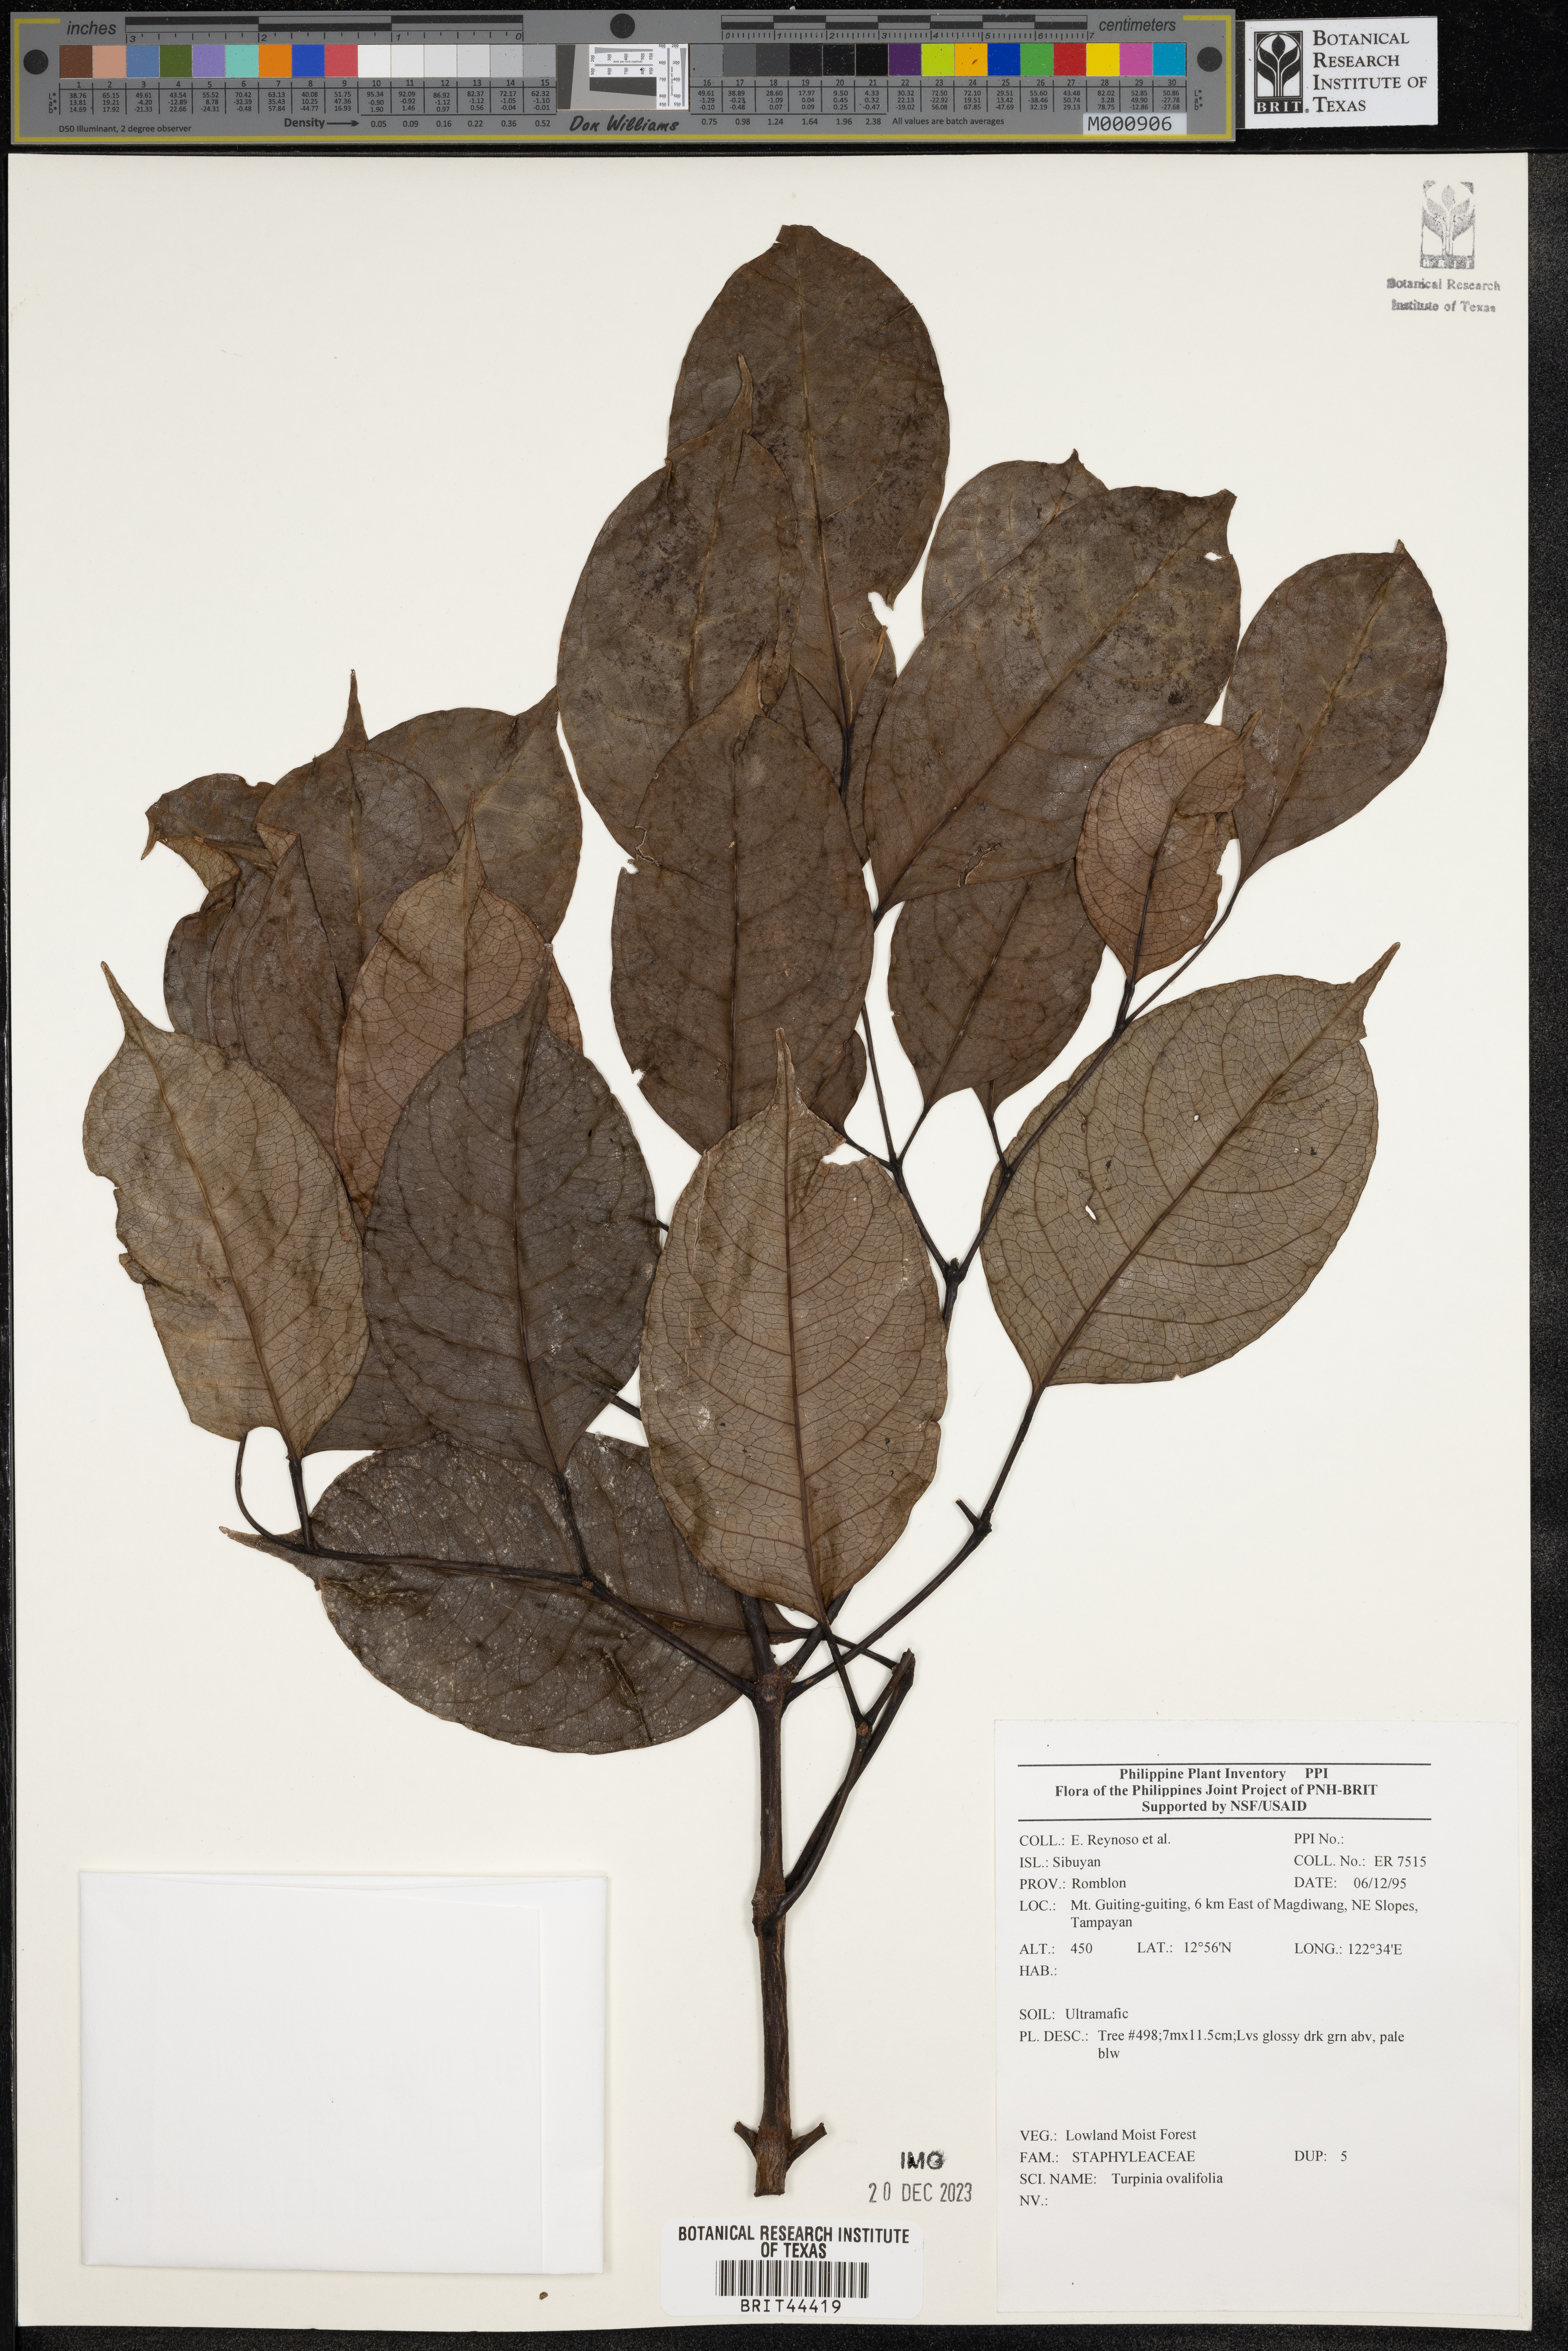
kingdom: Plantae
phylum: Tracheophyta
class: Magnoliopsida
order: Crossosomatales
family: Staphyleaceae
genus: Dalrympelea
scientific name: Dalrympelea trifoliata
